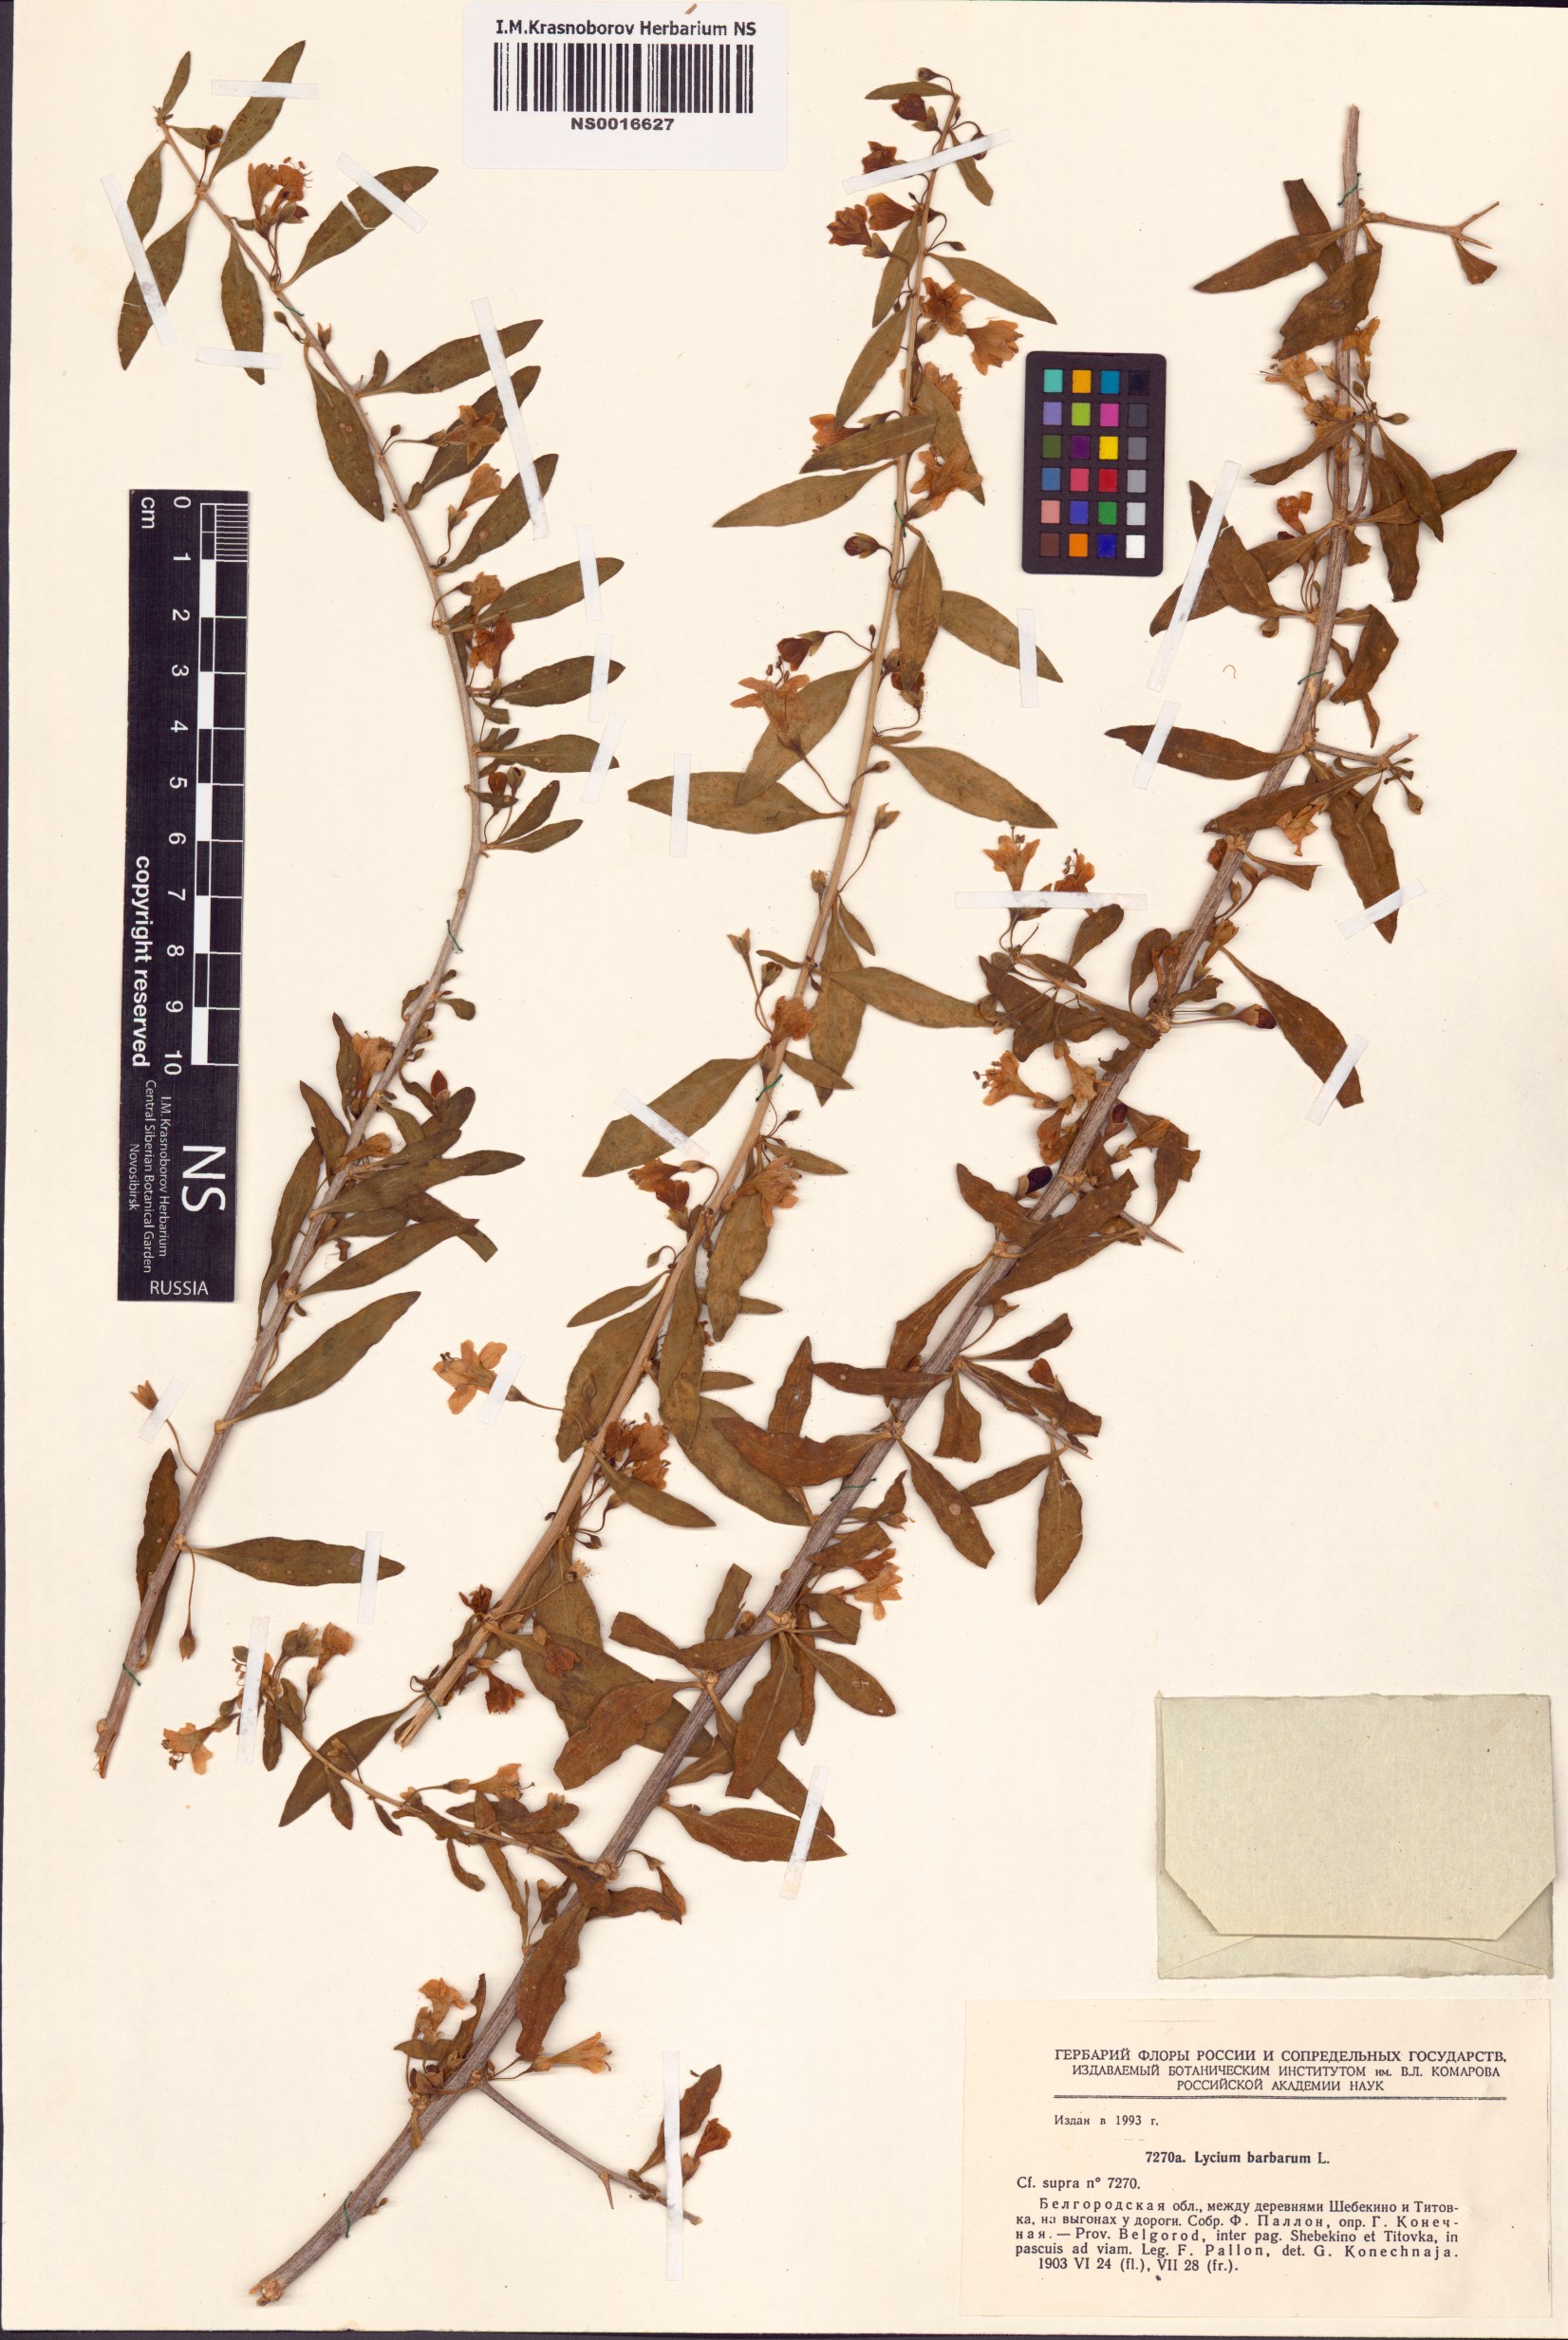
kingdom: Plantae
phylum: Tracheophyta
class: Magnoliopsida
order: Solanales
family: Solanaceae
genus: Lycium
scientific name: Lycium barbarum
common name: Duke of argyll's teaplant
